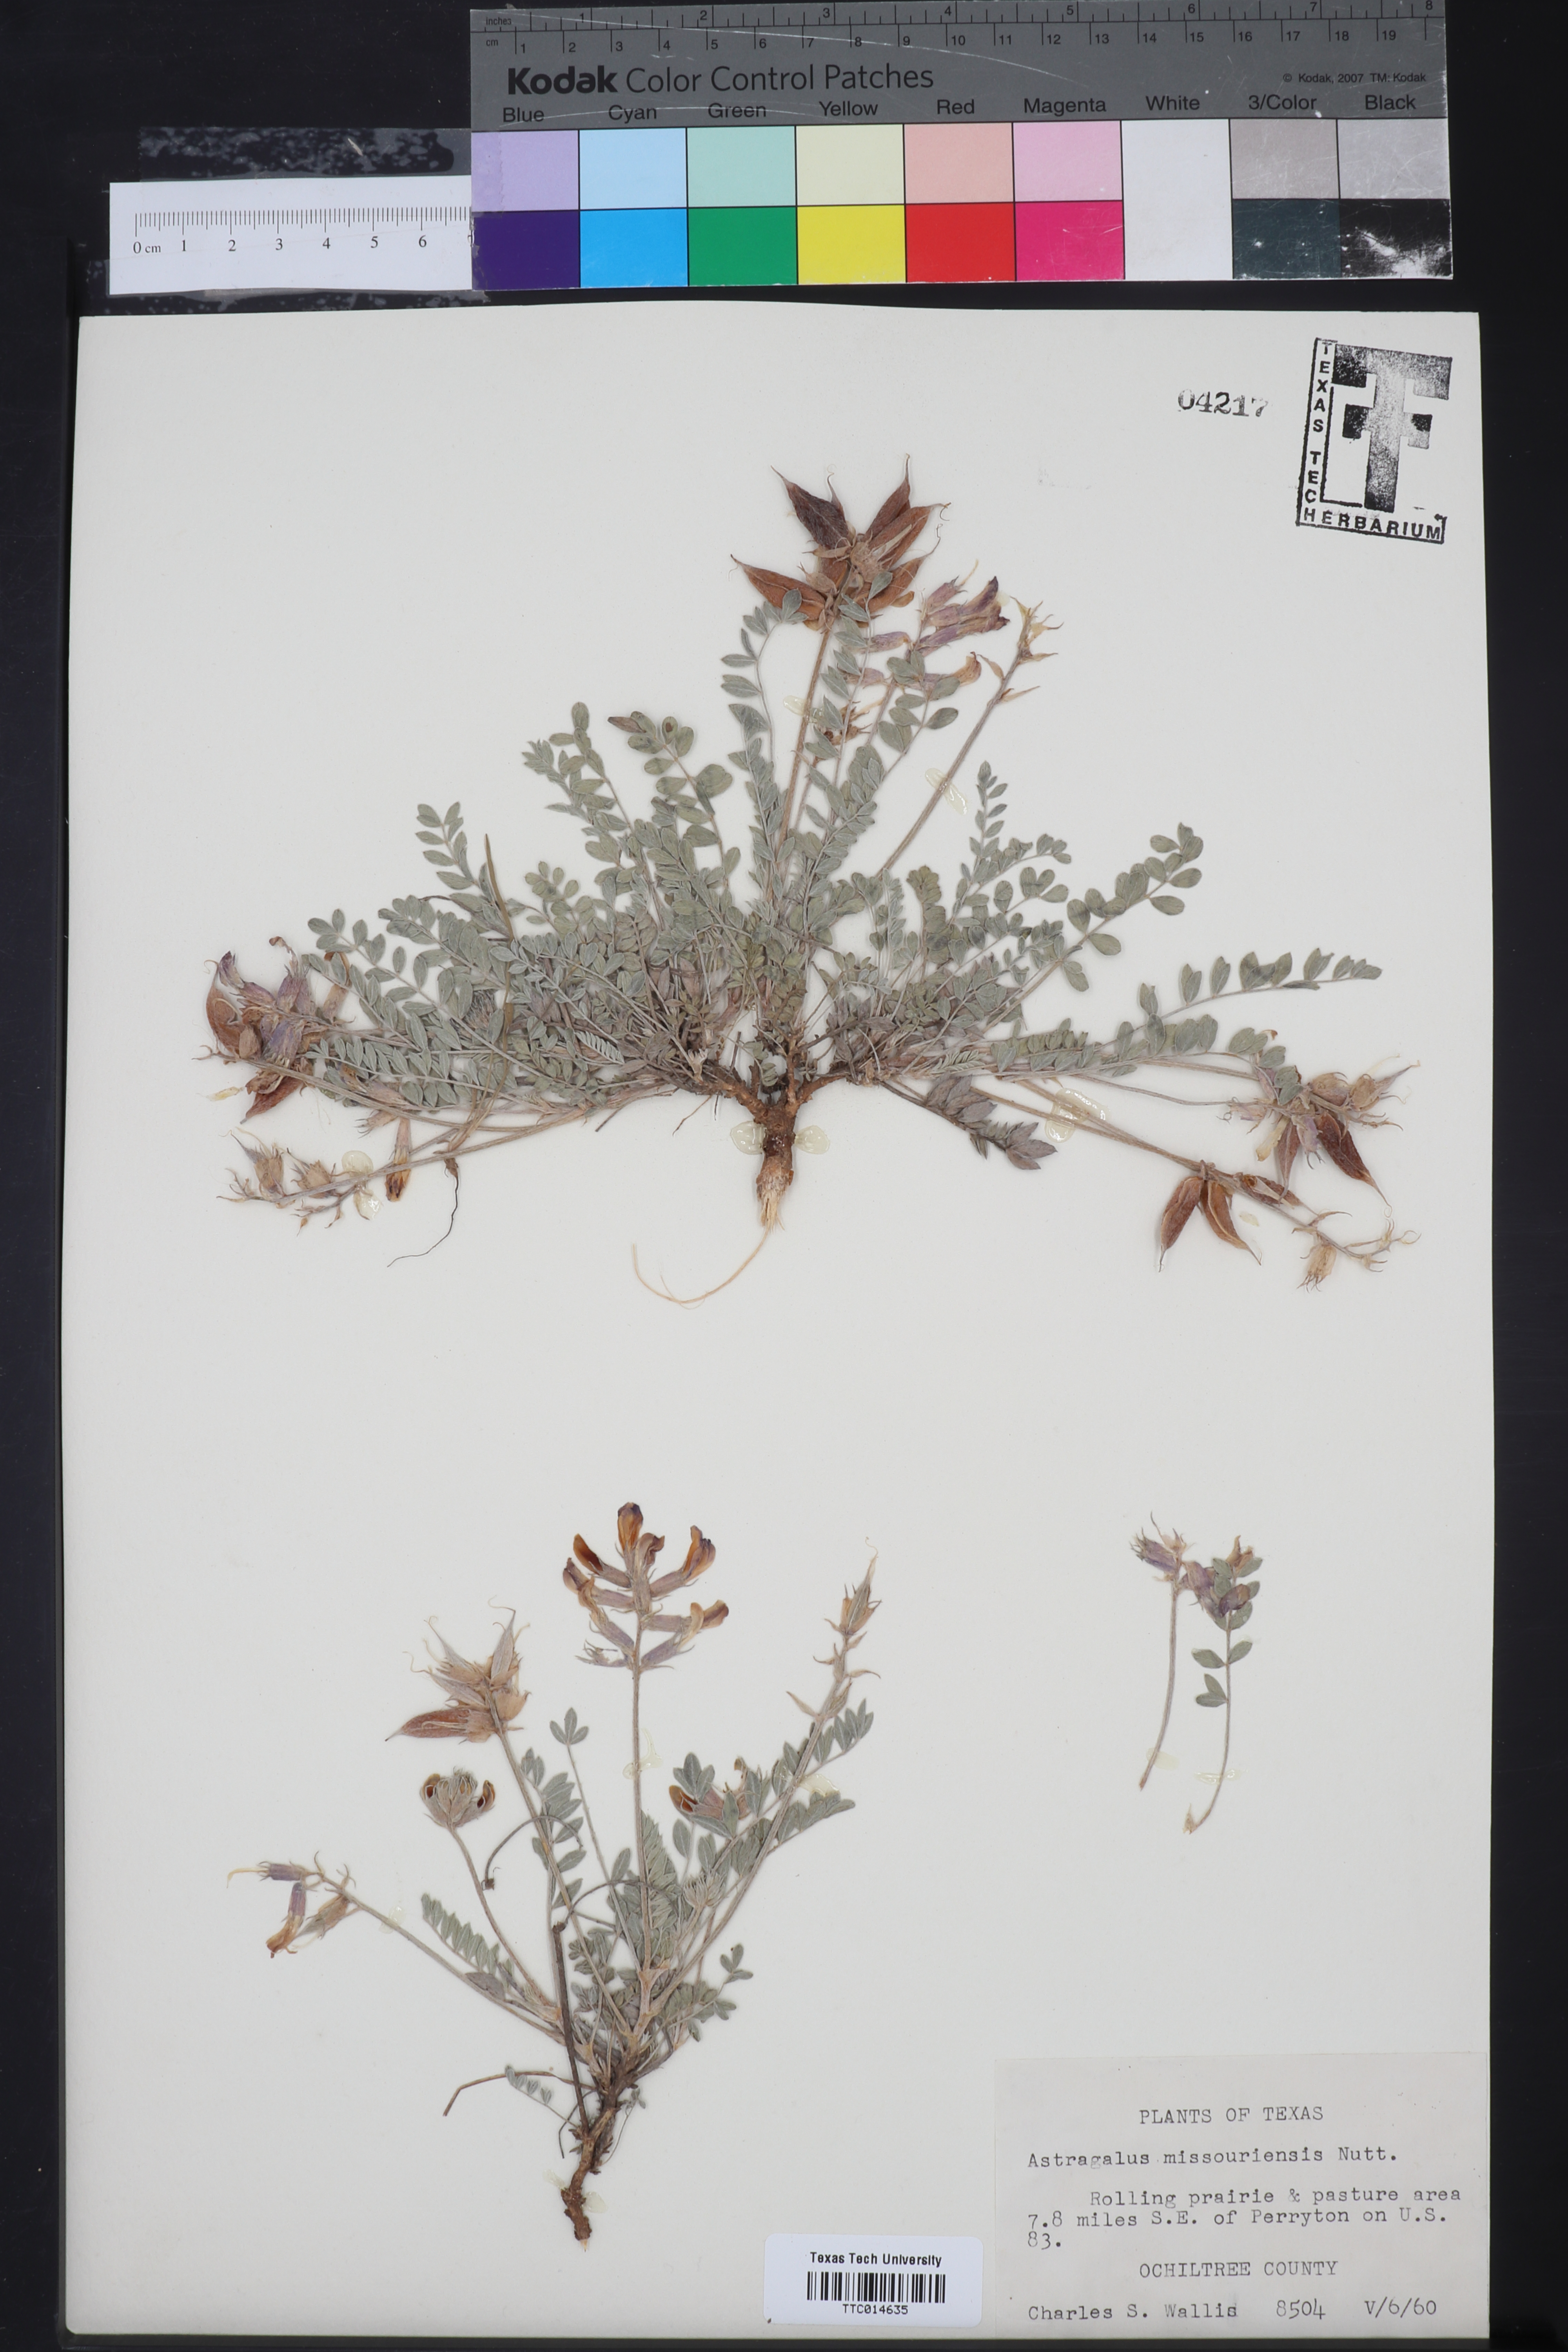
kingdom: Plantae
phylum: Tracheophyta
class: Magnoliopsida
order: Fabales
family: Fabaceae
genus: Astragalus
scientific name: Astragalus missouriensis
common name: Missouri milk-vetch
